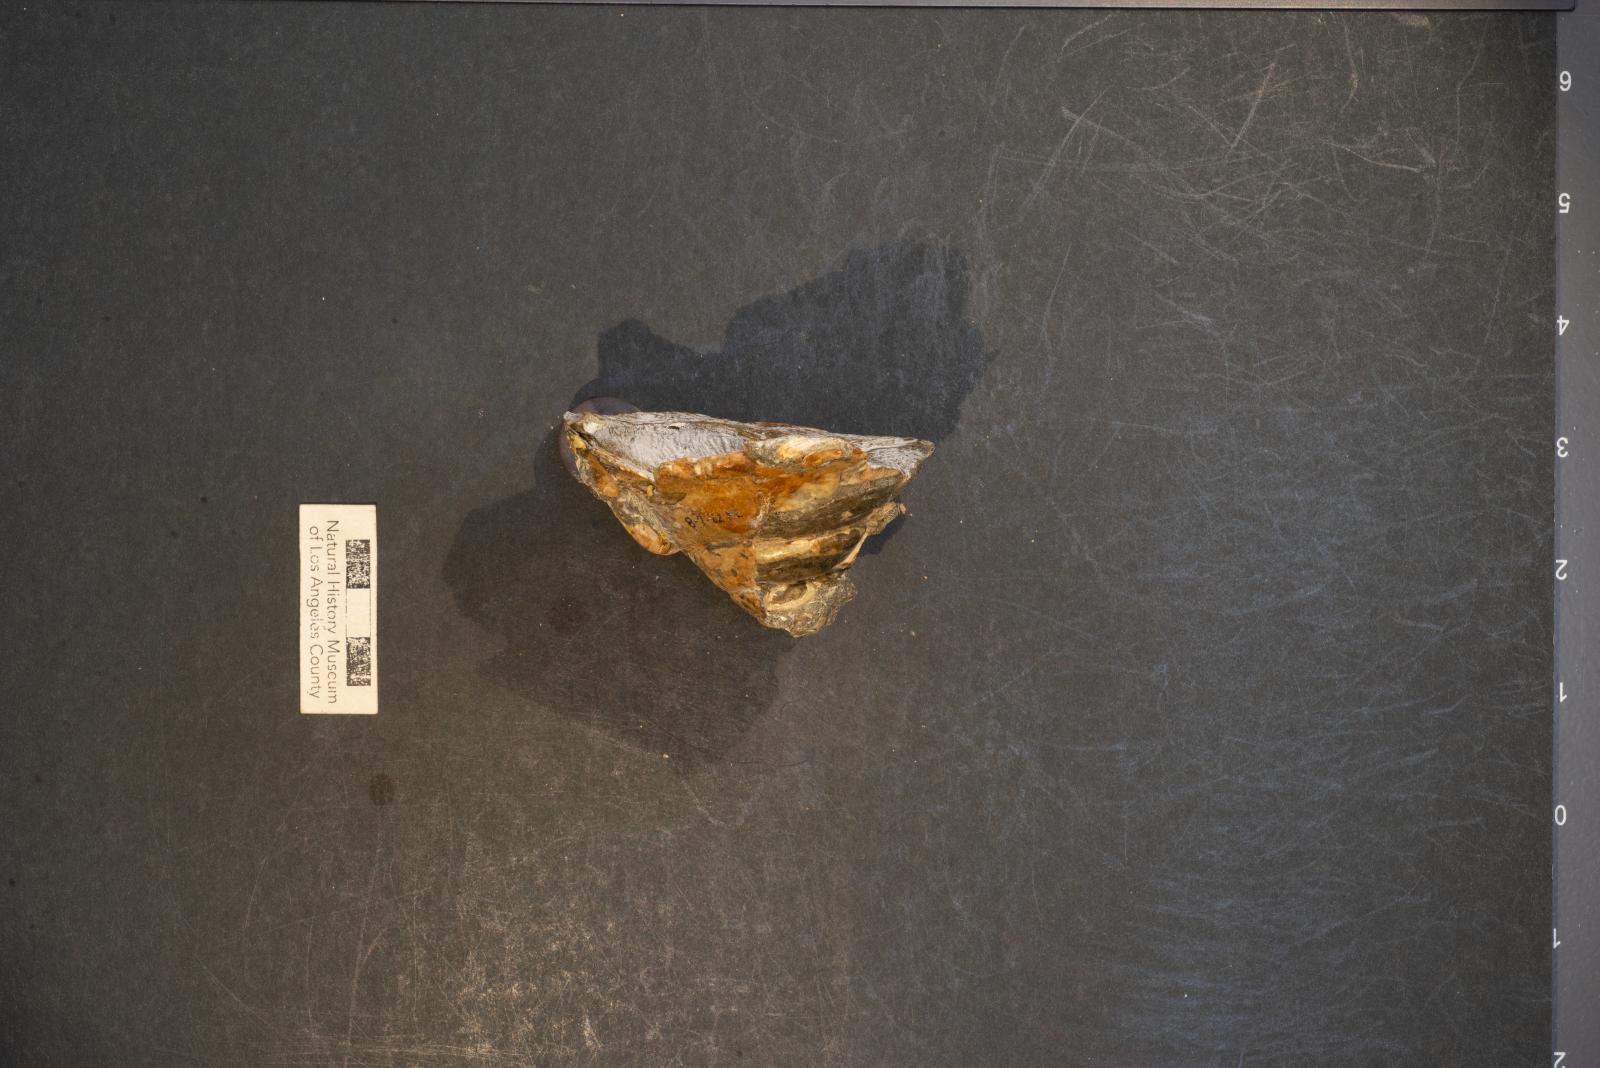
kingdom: Animalia
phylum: Mollusca
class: Gastropoda
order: Littorinimorpha
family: Xenophoridae
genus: Xenophora
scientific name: Xenophora hermax
